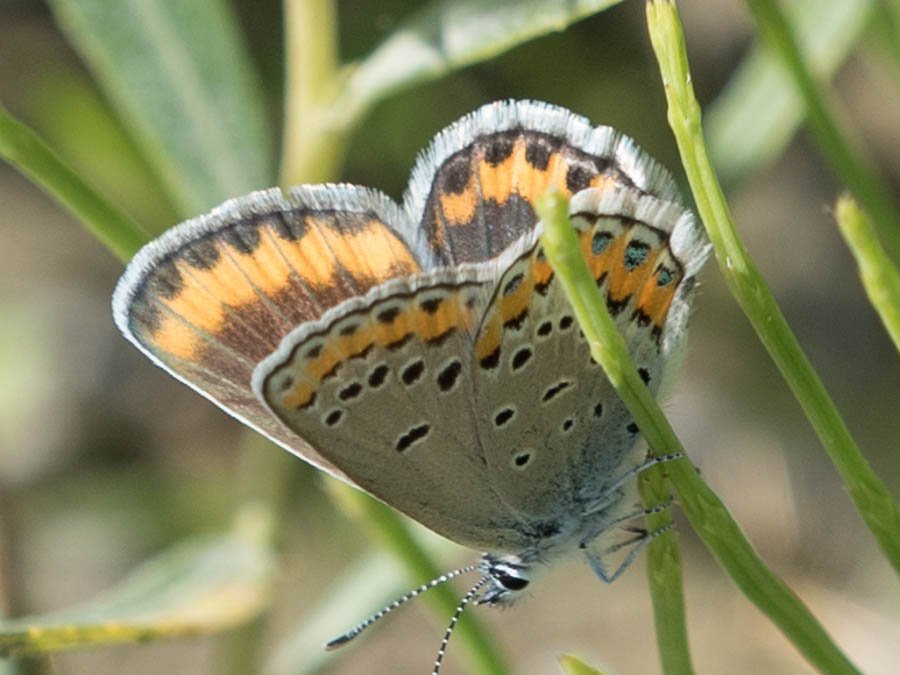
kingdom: Animalia
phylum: Arthropoda
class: Insecta
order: Lepidoptera
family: Lycaenidae
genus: Lycaeides
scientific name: Lycaeides melissa
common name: Melissa Blue
